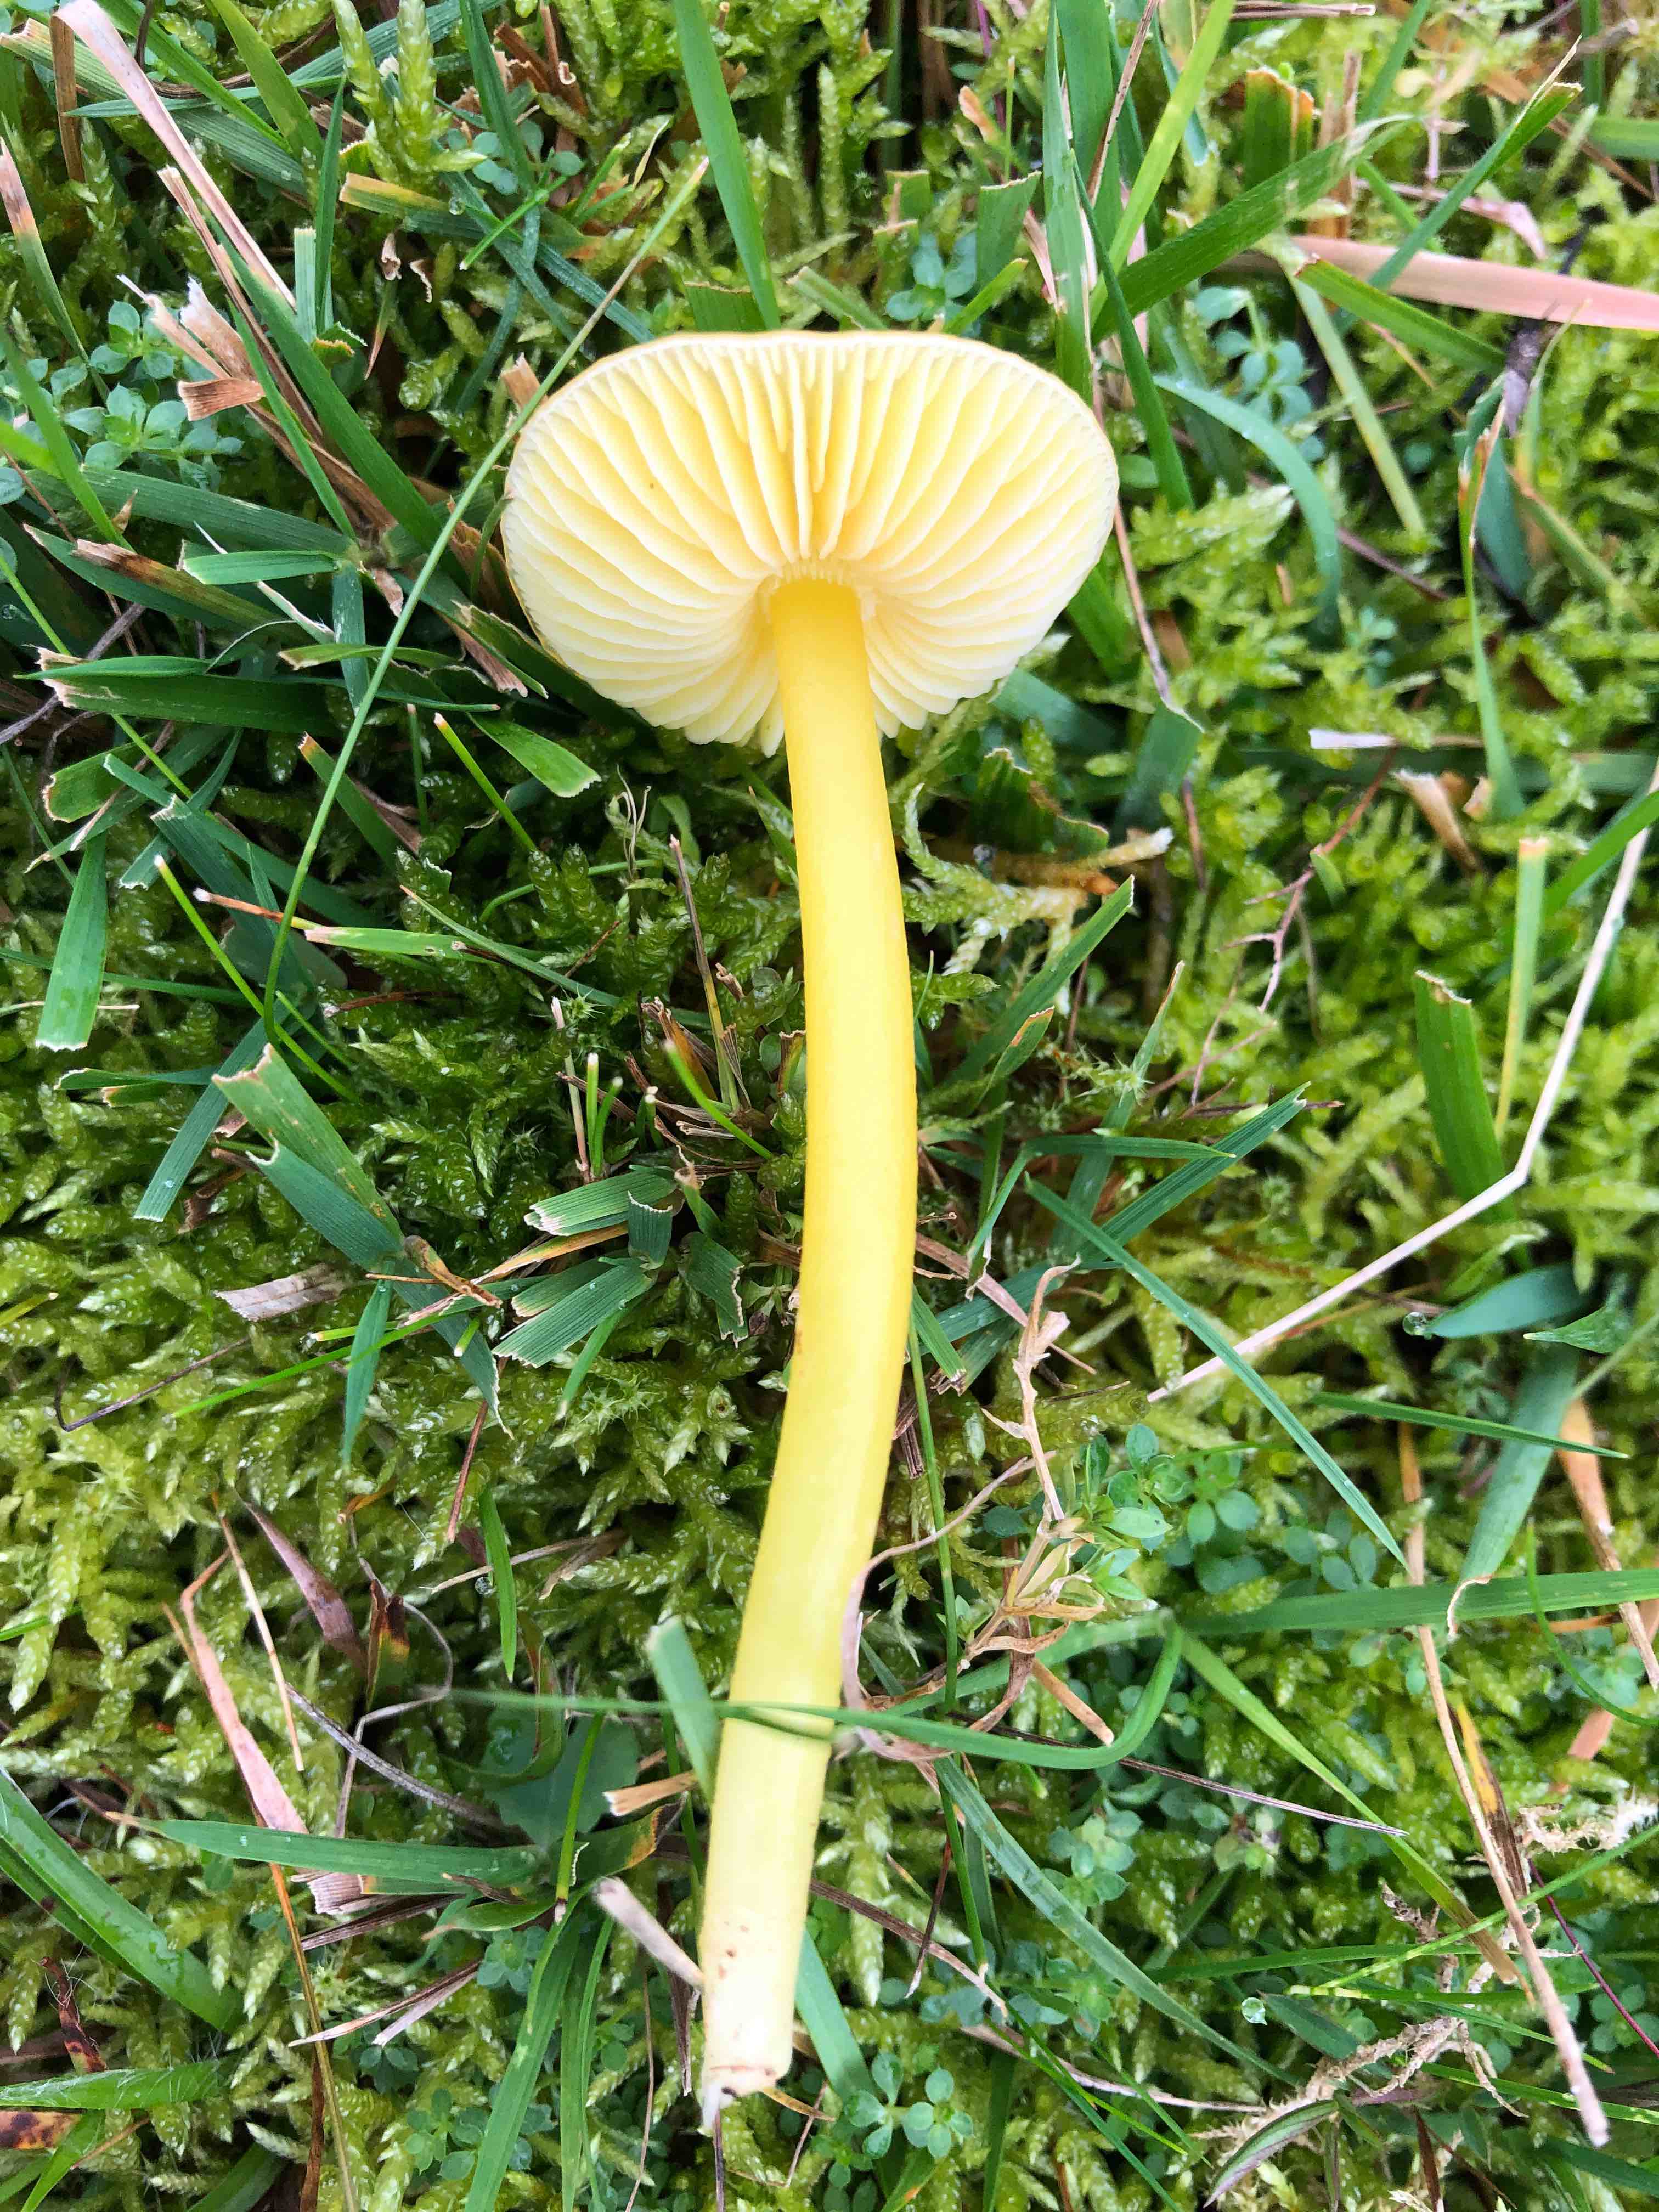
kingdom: Fungi
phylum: Basidiomycota
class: Agaricomycetes
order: Agaricales
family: Hygrophoraceae
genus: Hygrocybe
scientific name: Hygrocybe chlorophana
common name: gul vokshat
